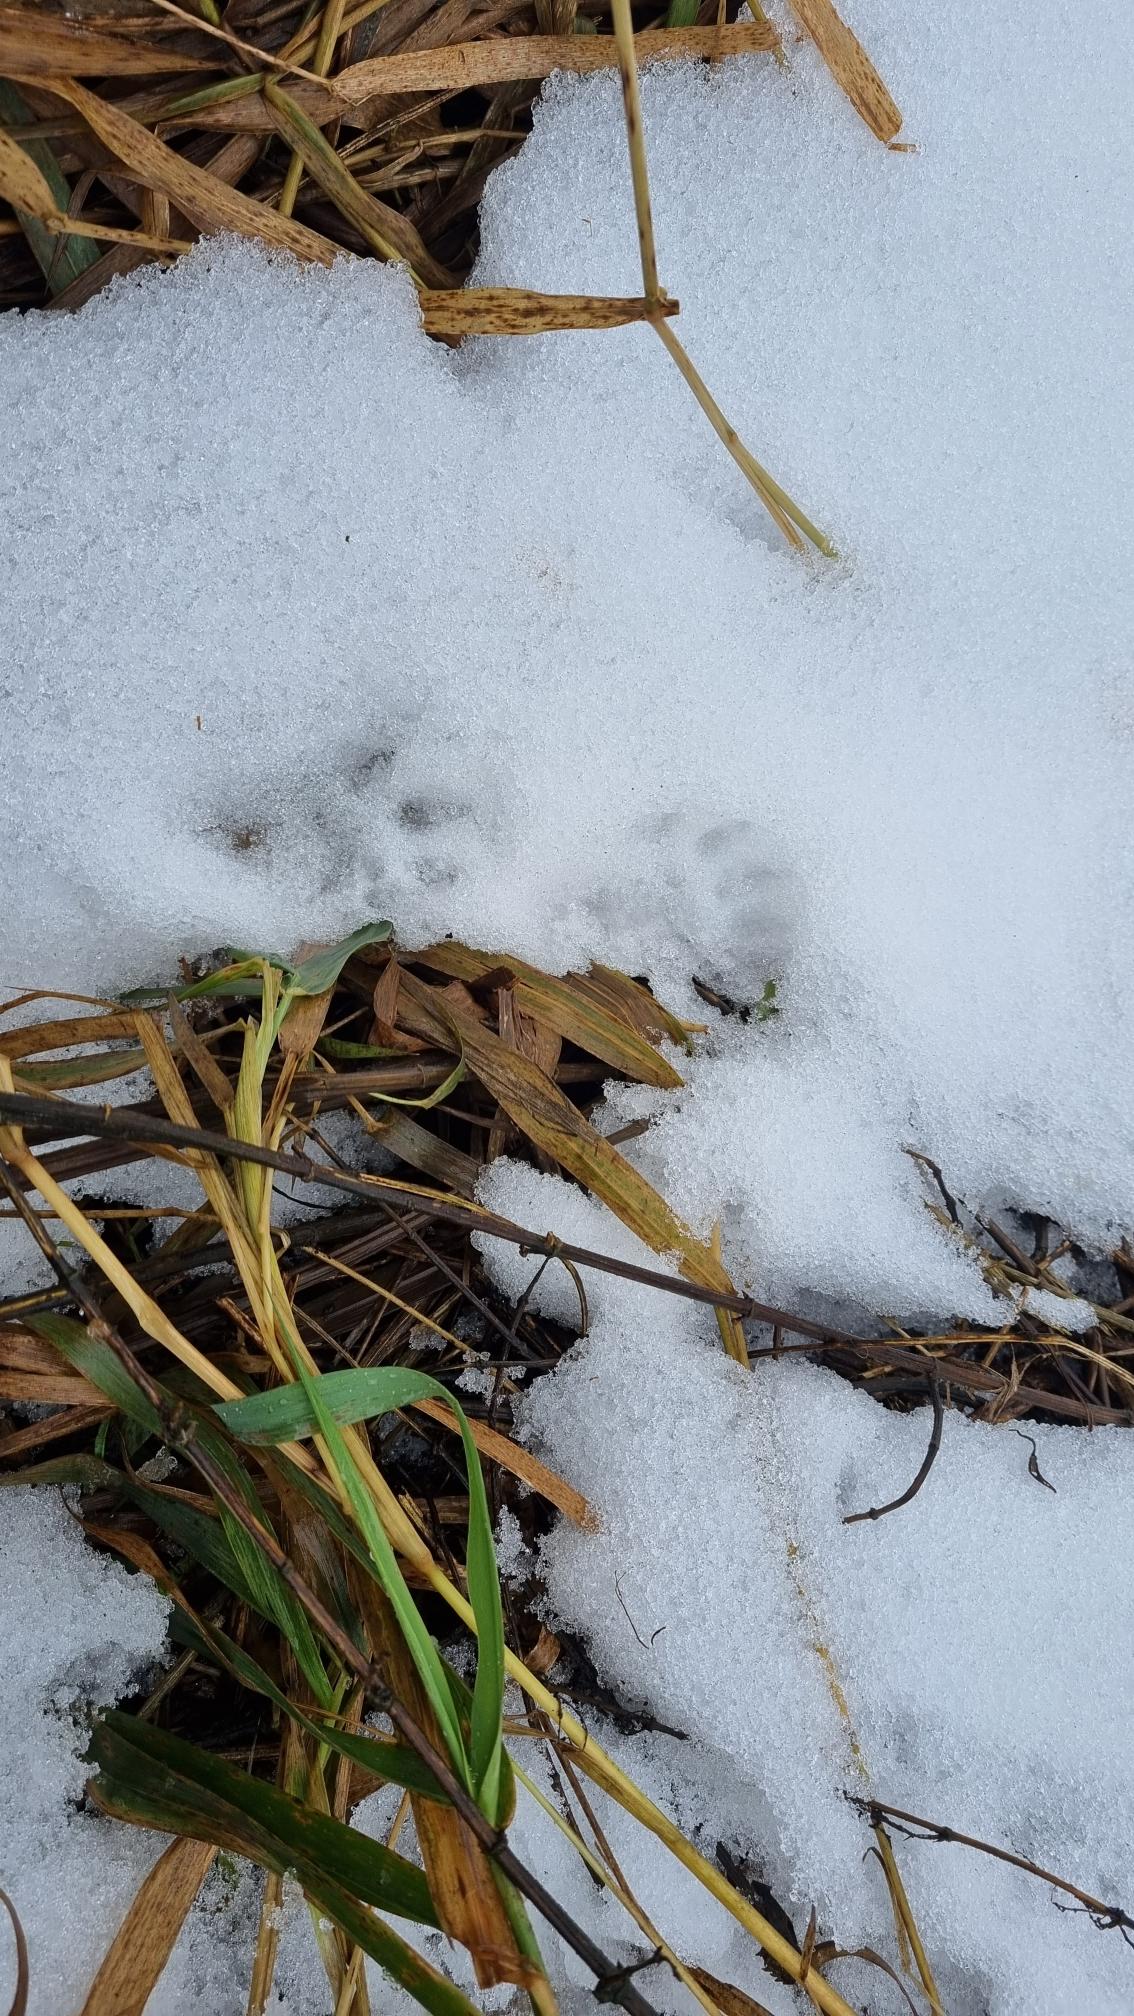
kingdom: Animalia
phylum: Chordata
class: Mammalia
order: Carnivora
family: Mustelidae
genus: Lutra
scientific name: Lutra lutra
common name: Odder
